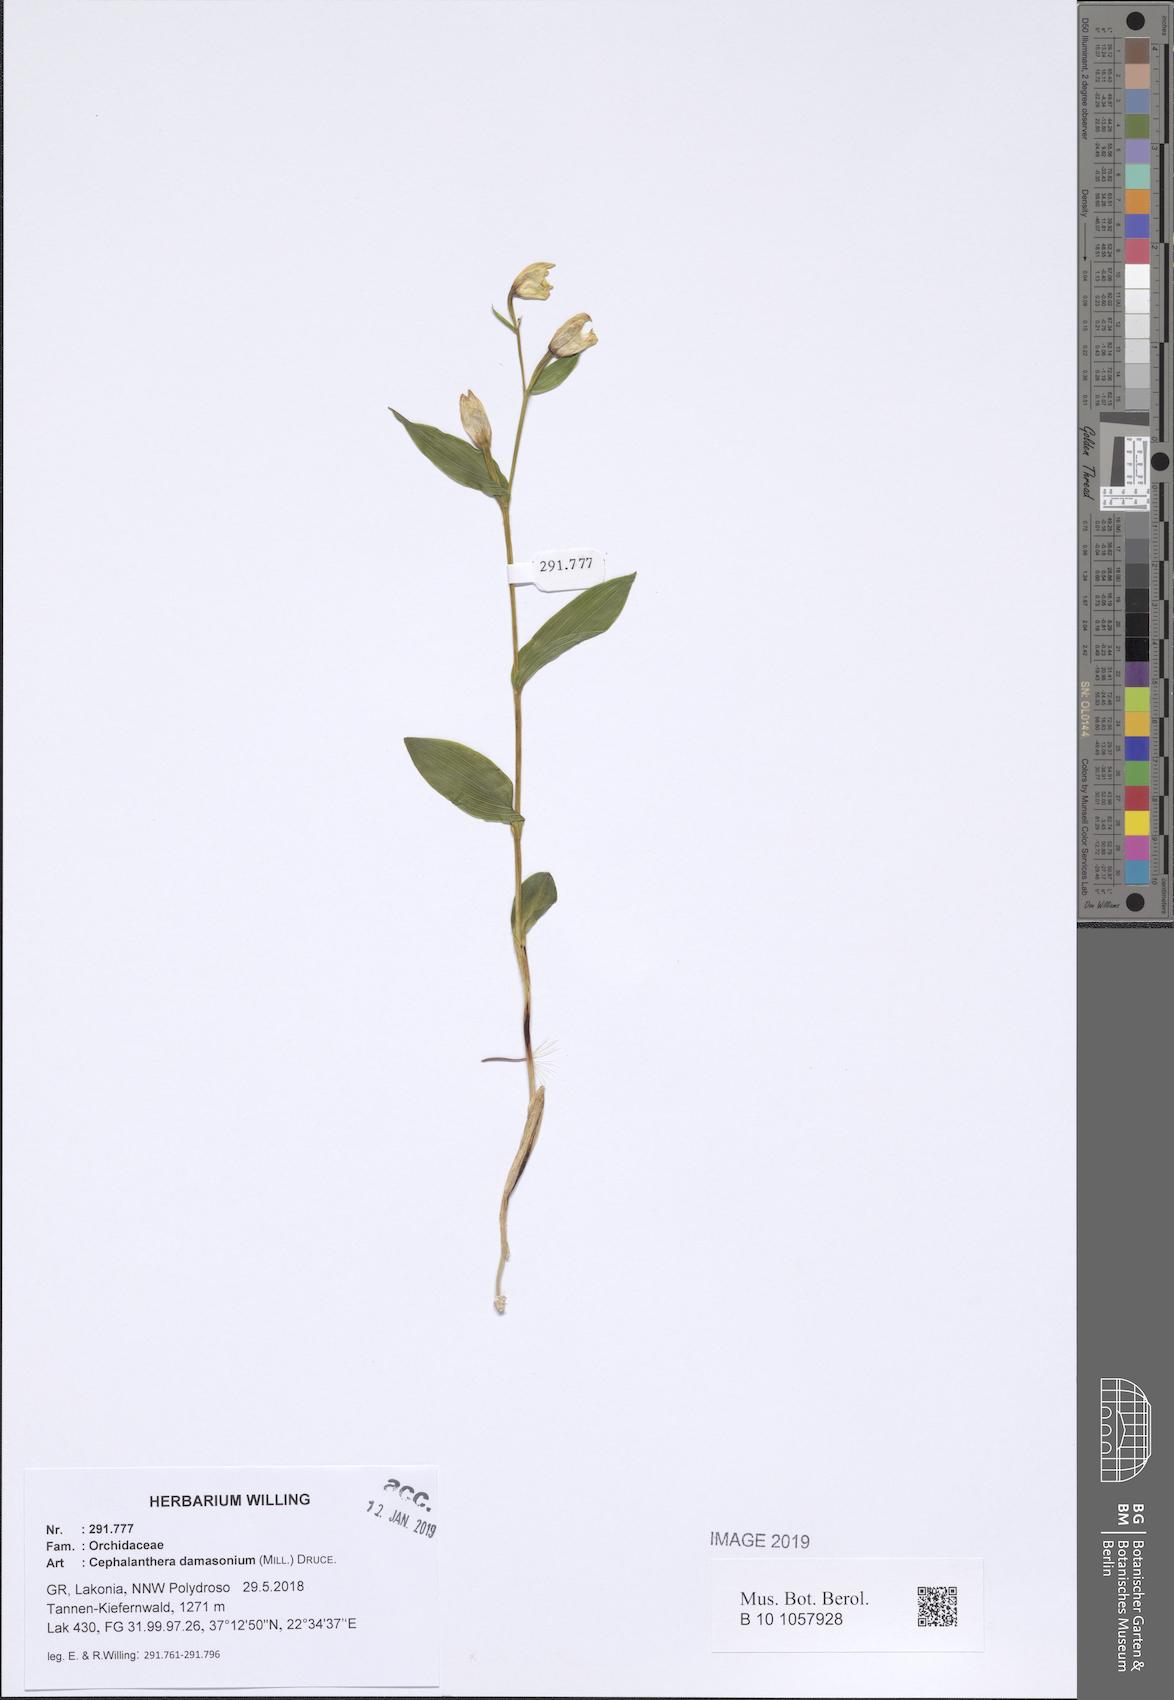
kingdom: Plantae
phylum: Tracheophyta
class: Liliopsida
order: Asparagales
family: Orchidaceae
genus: Cephalanthera
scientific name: Cephalanthera damasonium
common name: White helleborine
